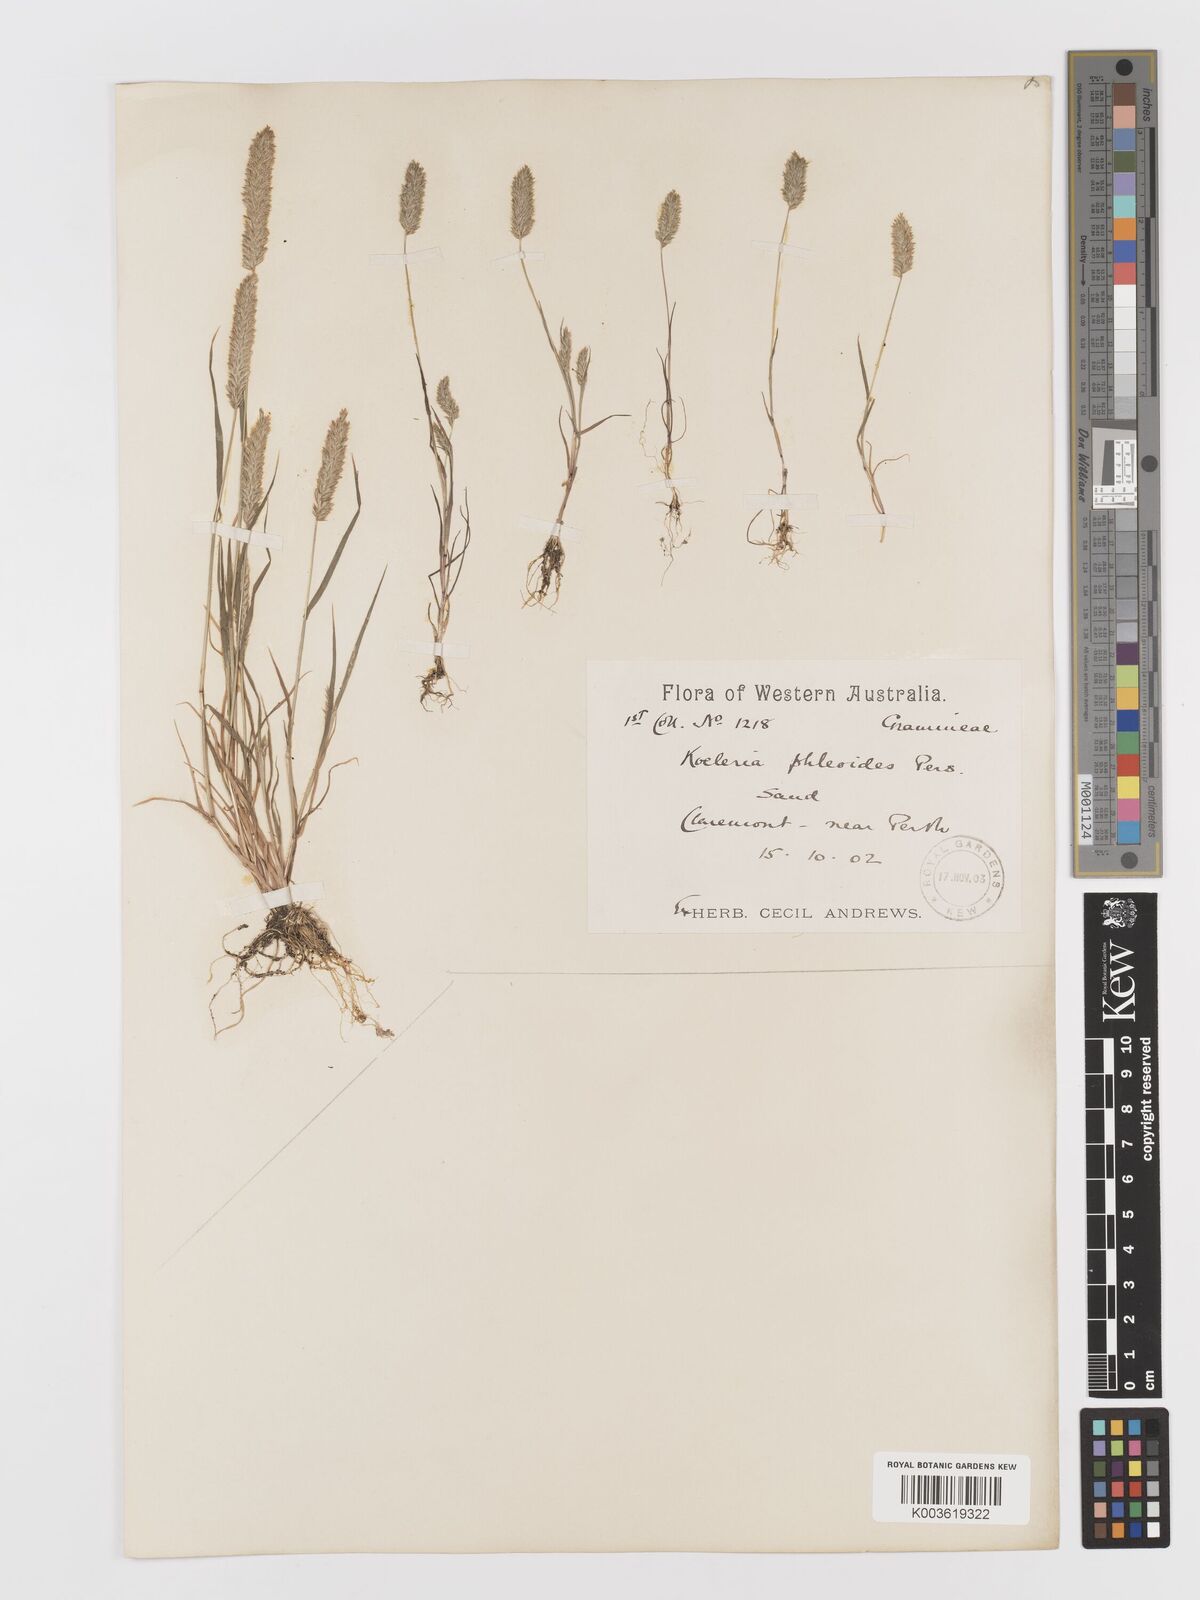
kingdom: Plantae
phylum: Tracheophyta
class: Liliopsida
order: Poales
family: Poaceae
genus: Rostraria
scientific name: Rostraria cristata
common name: Mediterranean hair-grass
